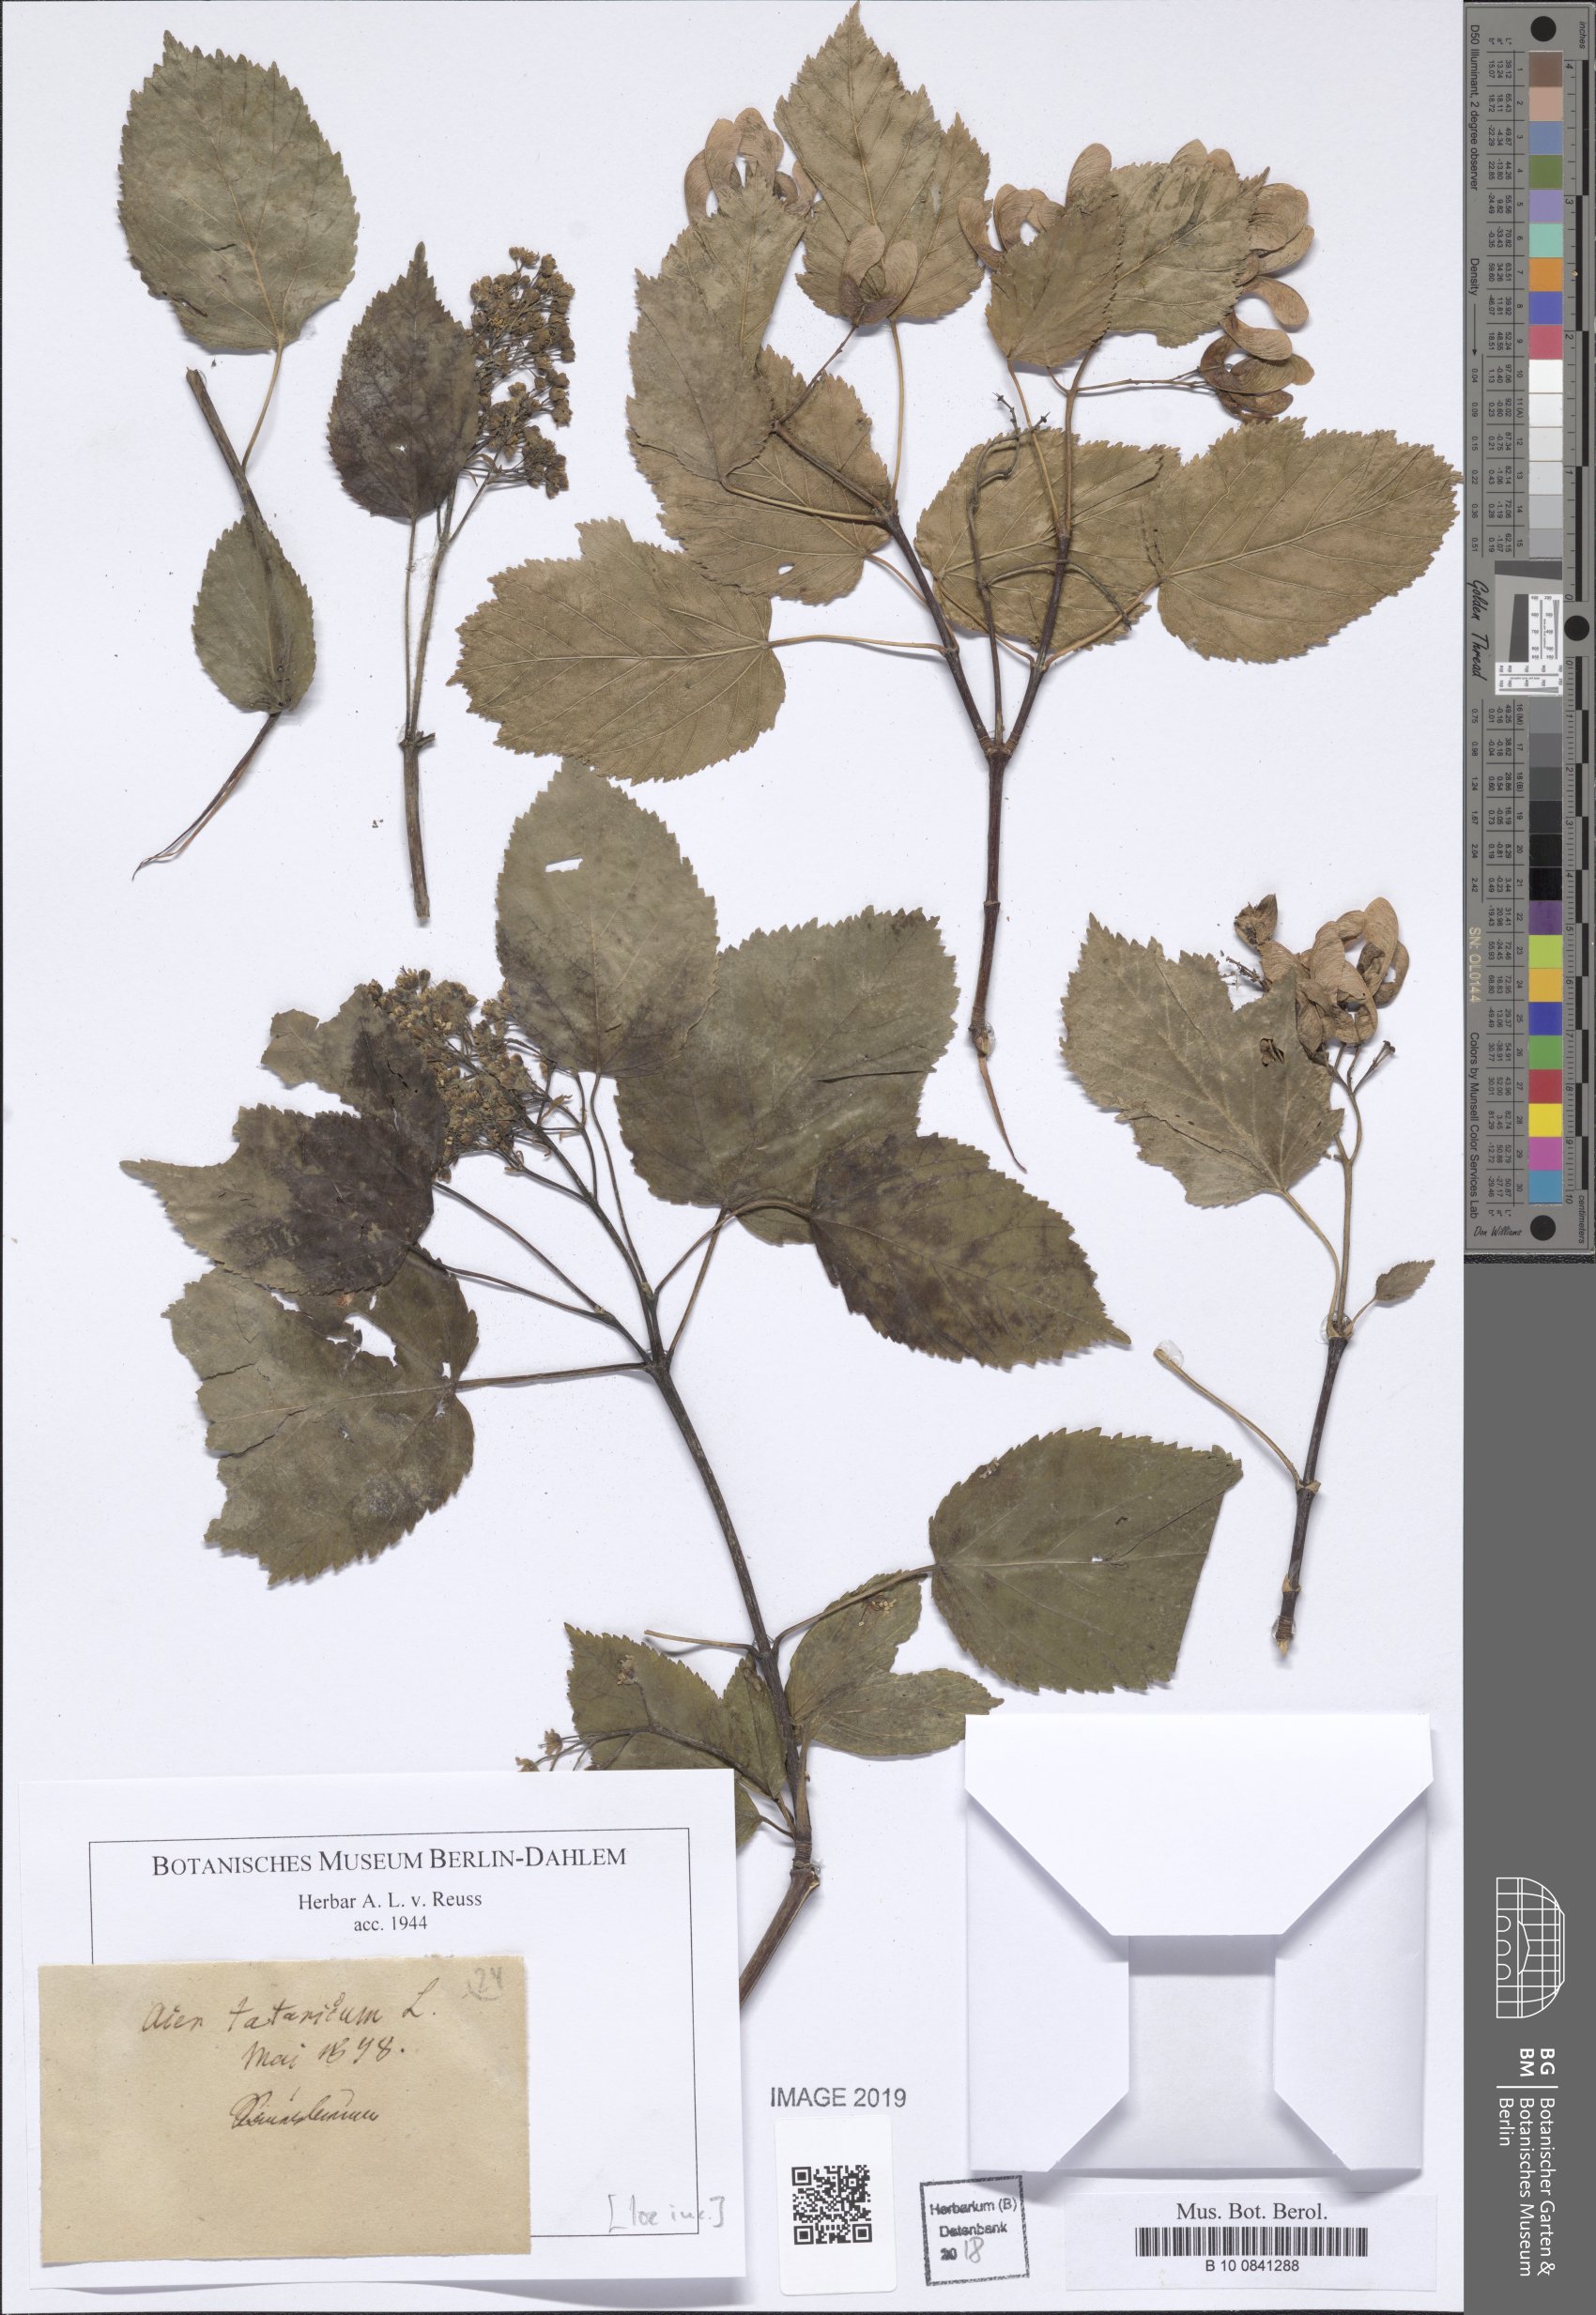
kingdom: Plantae
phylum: Tracheophyta
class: Magnoliopsida
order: Sapindales
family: Sapindaceae
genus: Acer
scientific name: Acer tataricum
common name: Tartar maple
